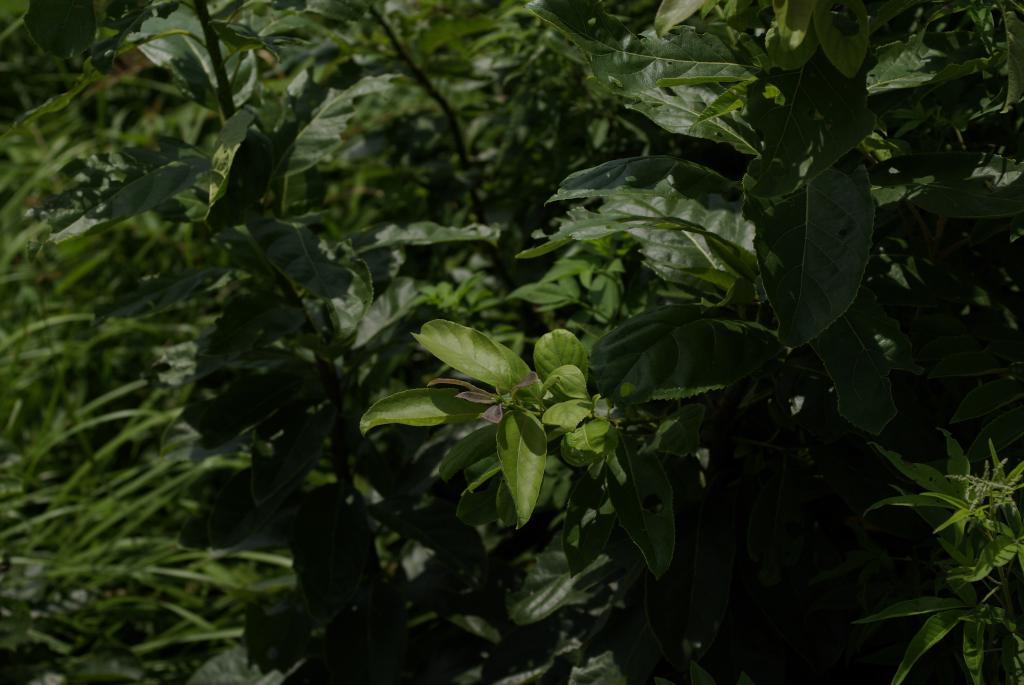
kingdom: Plantae
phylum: Tracheophyta
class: Magnoliopsida
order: Boraginales
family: Ehretiaceae
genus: Ehretia
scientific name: Ehretia acuminata
